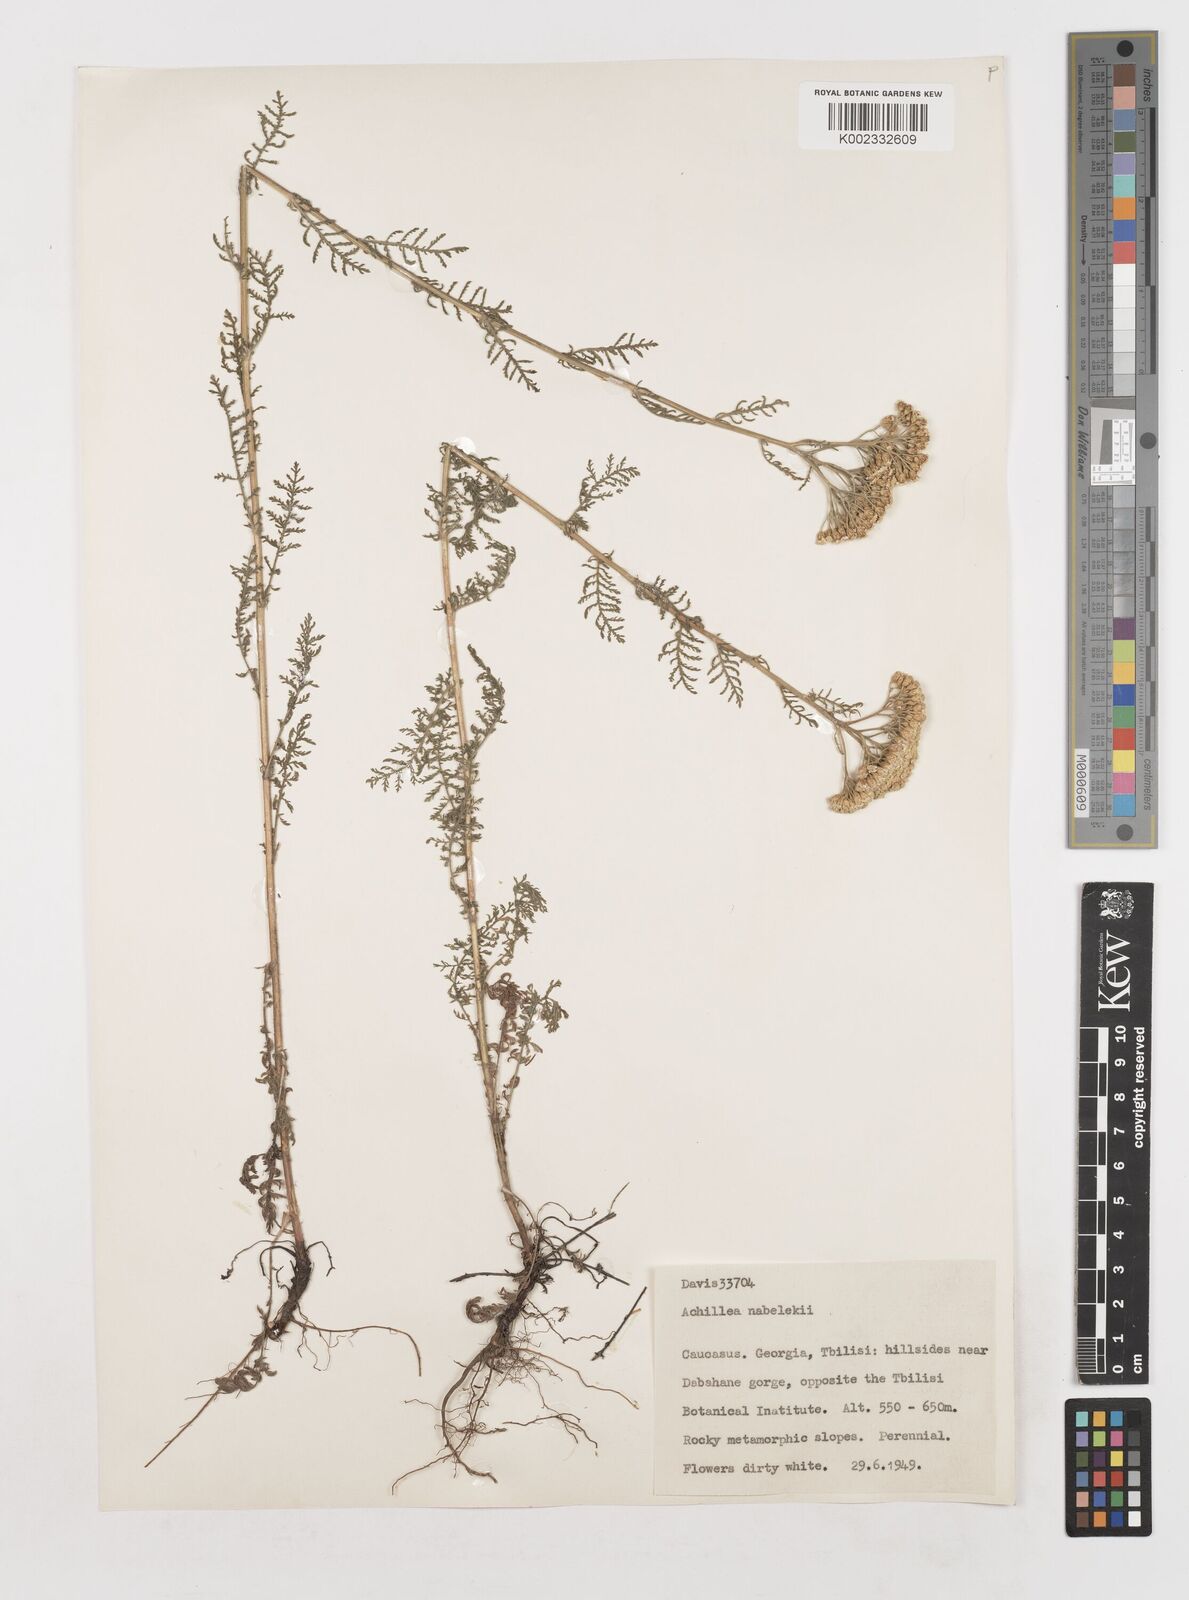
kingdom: Plantae
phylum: Tracheophyta
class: Magnoliopsida
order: Asterales
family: Asteraceae
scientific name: Asteraceae
